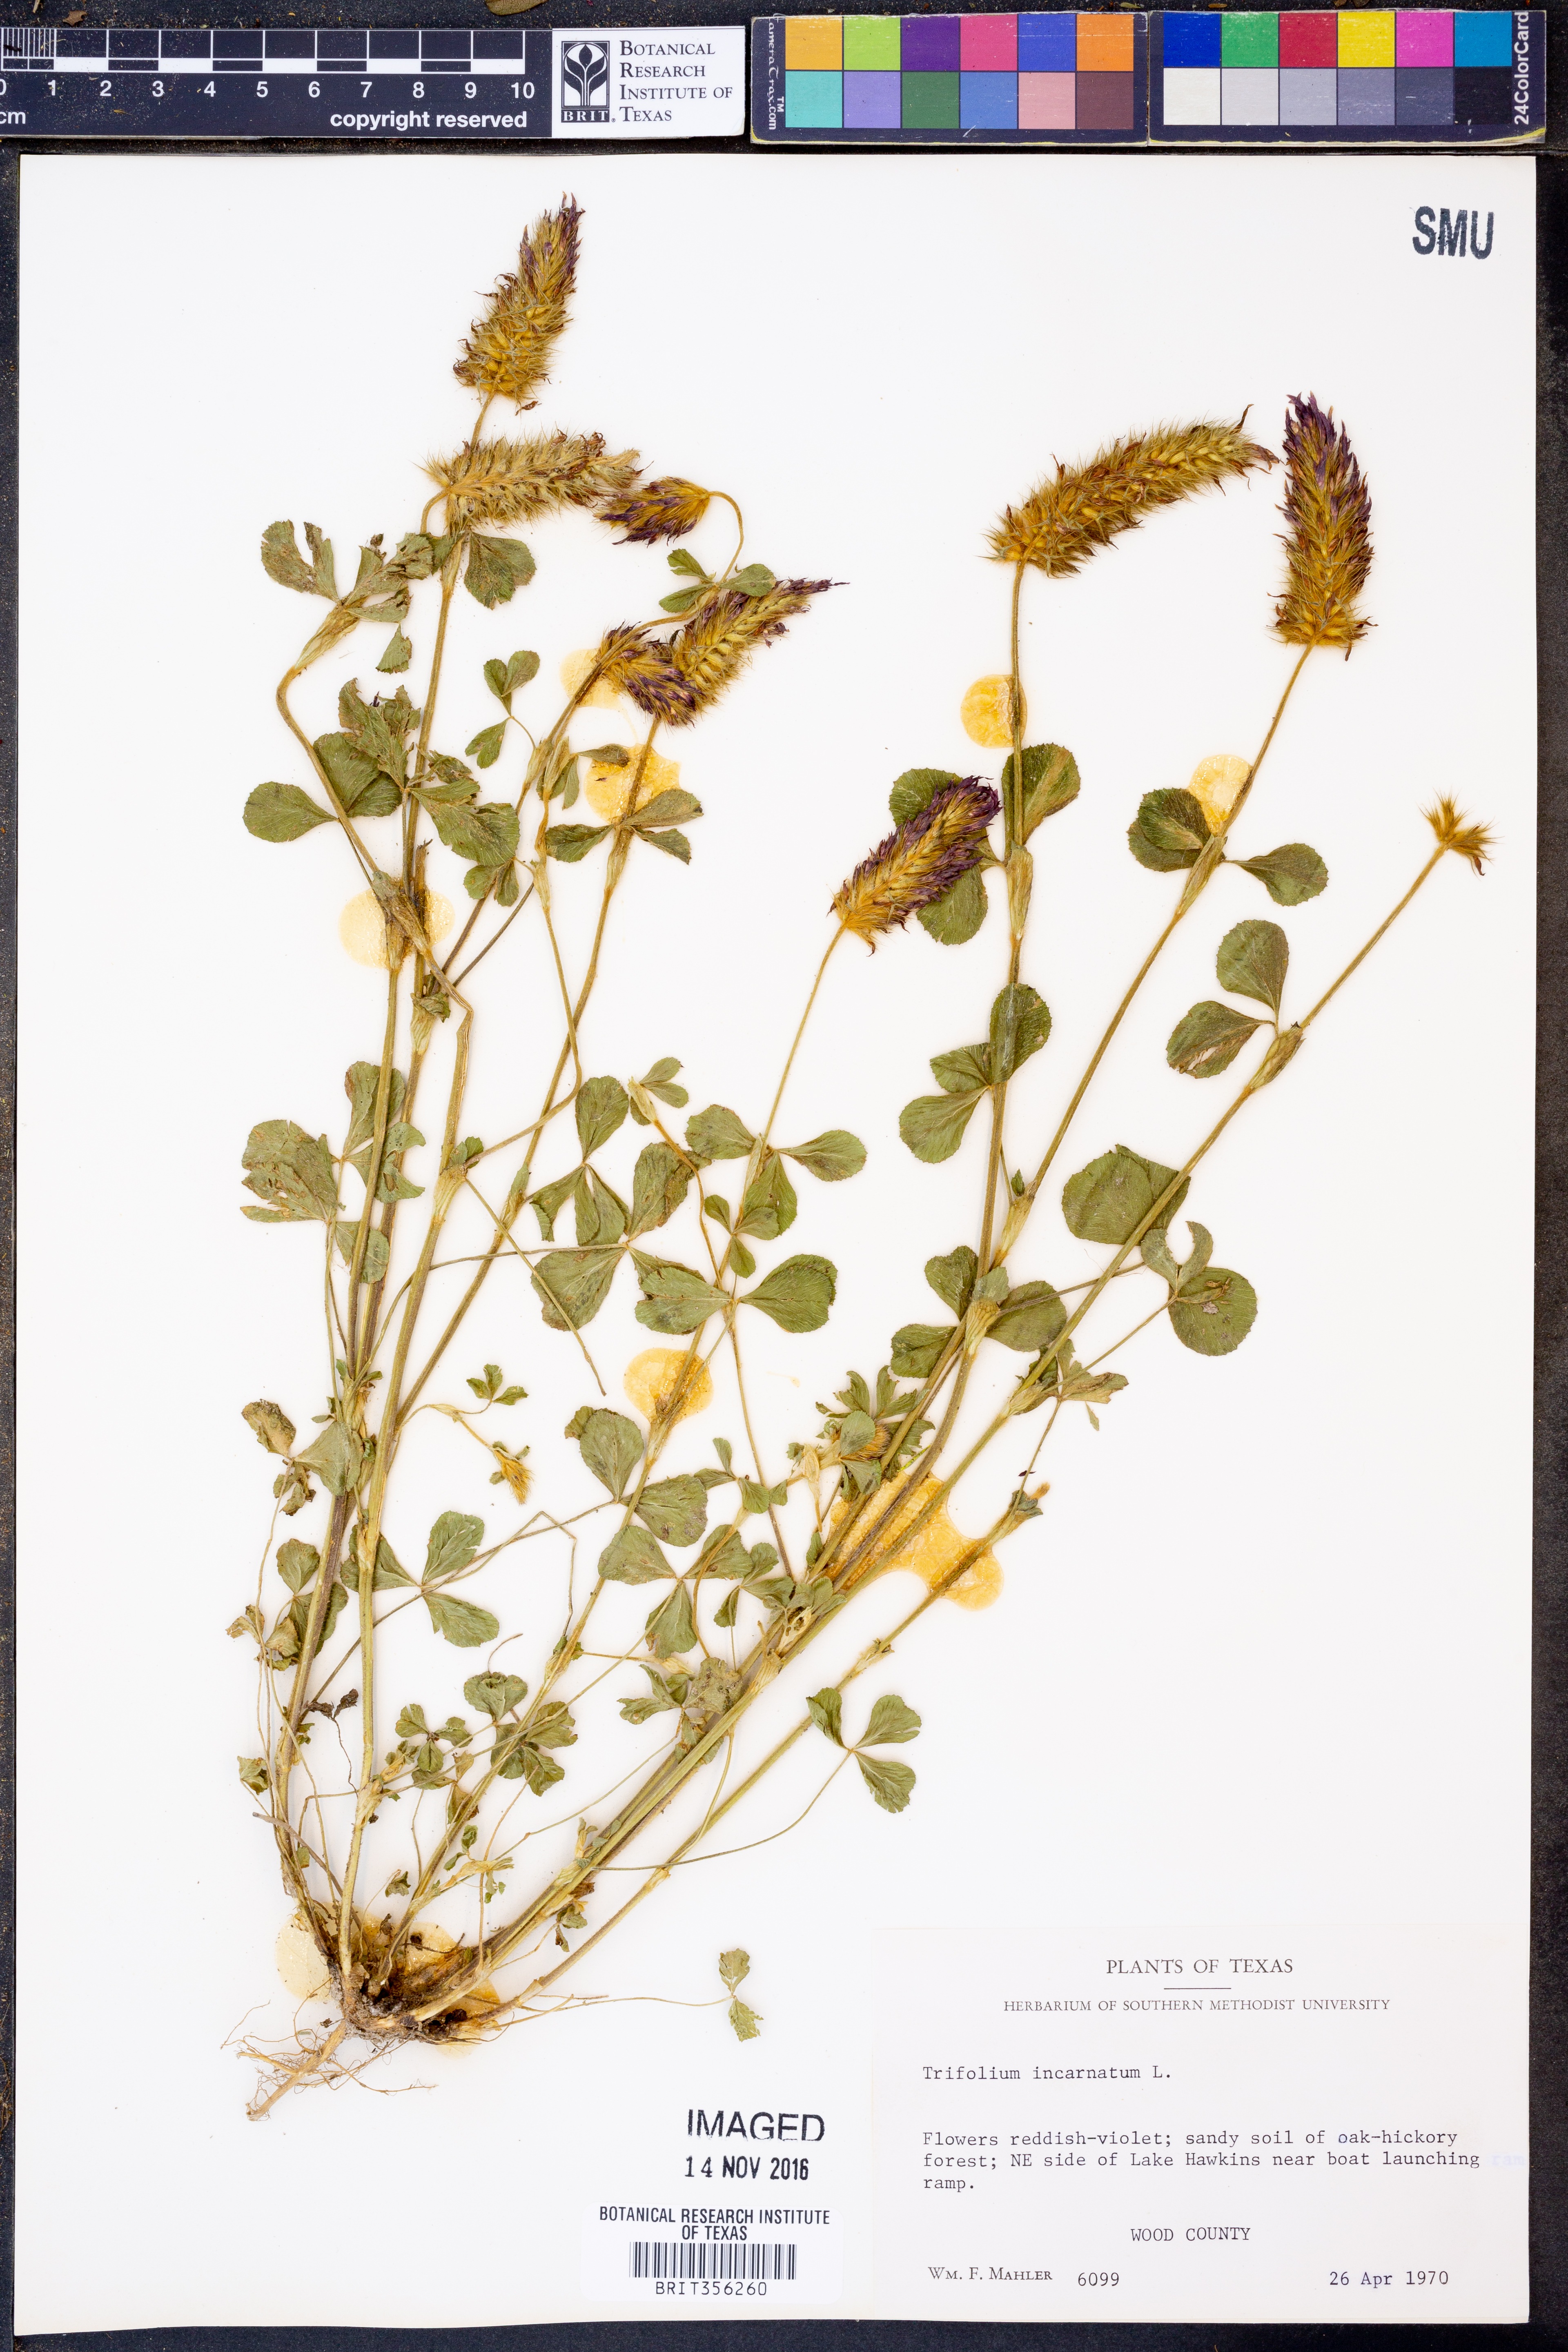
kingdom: Plantae
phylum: Tracheophyta
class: Magnoliopsida
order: Fabales
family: Fabaceae
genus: Trifolium
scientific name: Trifolium incarnatum
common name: Crimson clover
